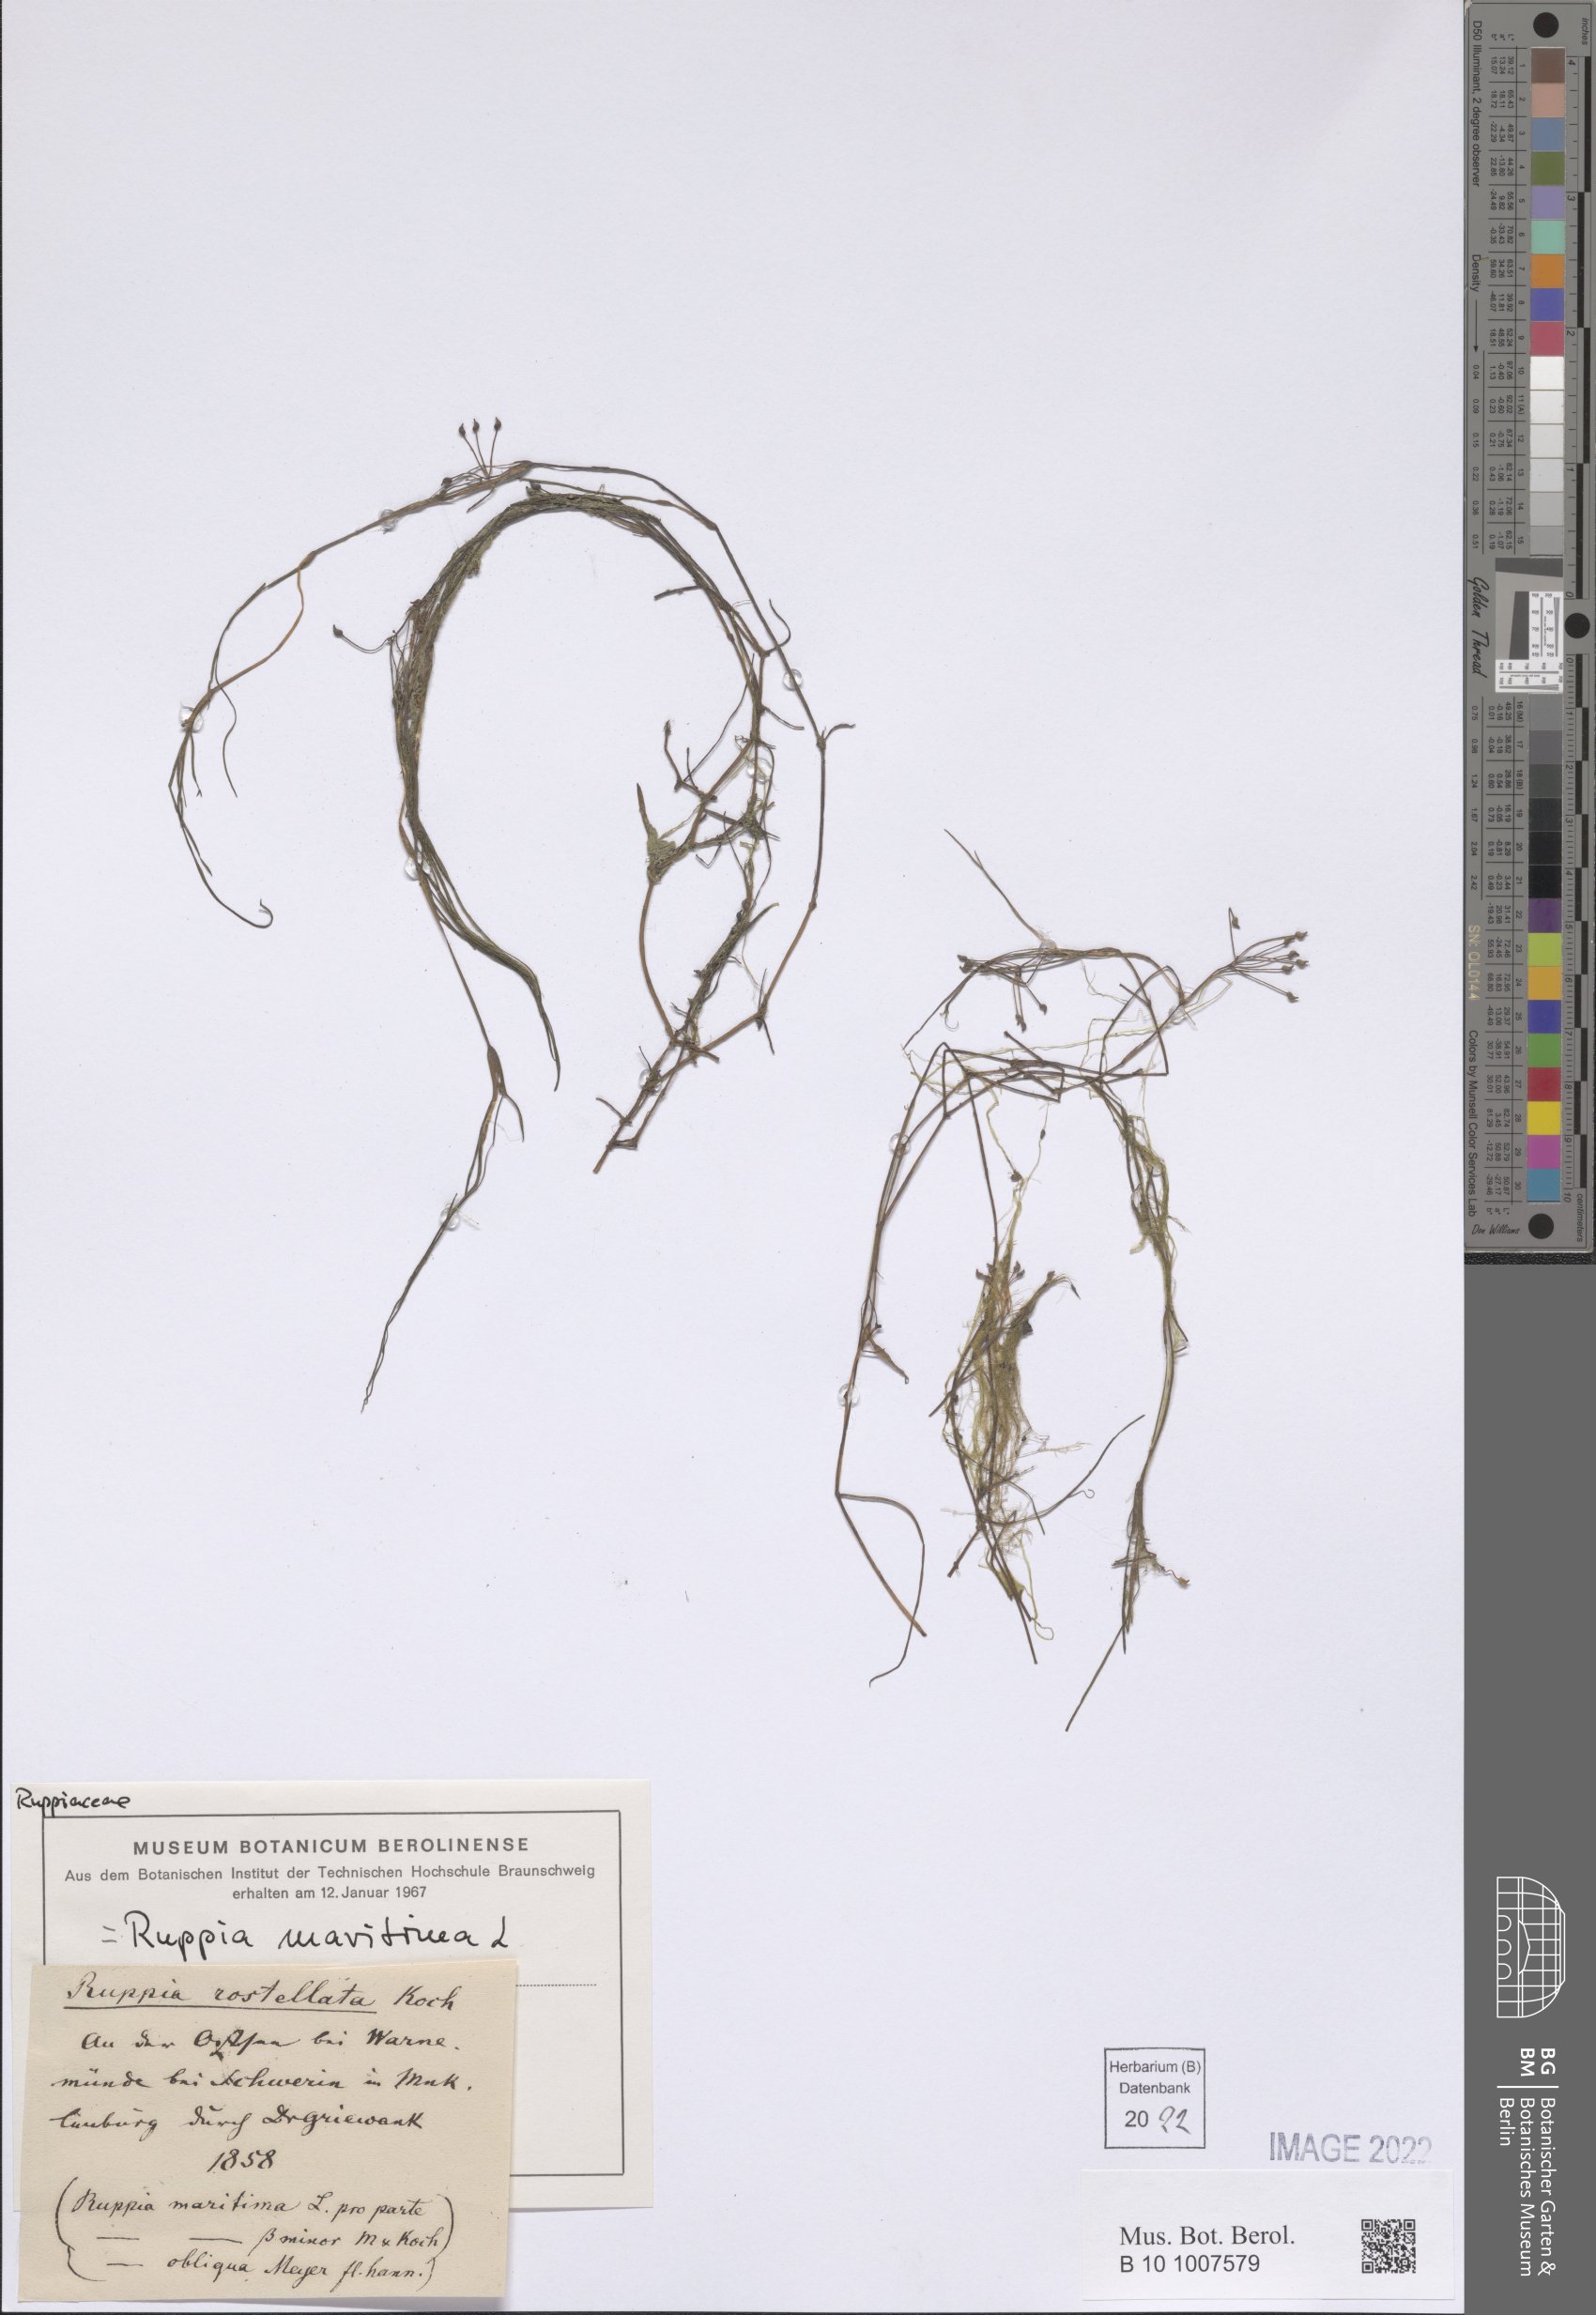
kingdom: Plantae
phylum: Tracheophyta
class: Liliopsida
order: Alismatales
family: Ruppiaceae
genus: Ruppia
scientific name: Ruppia maritima
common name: Beaked tasselweed
